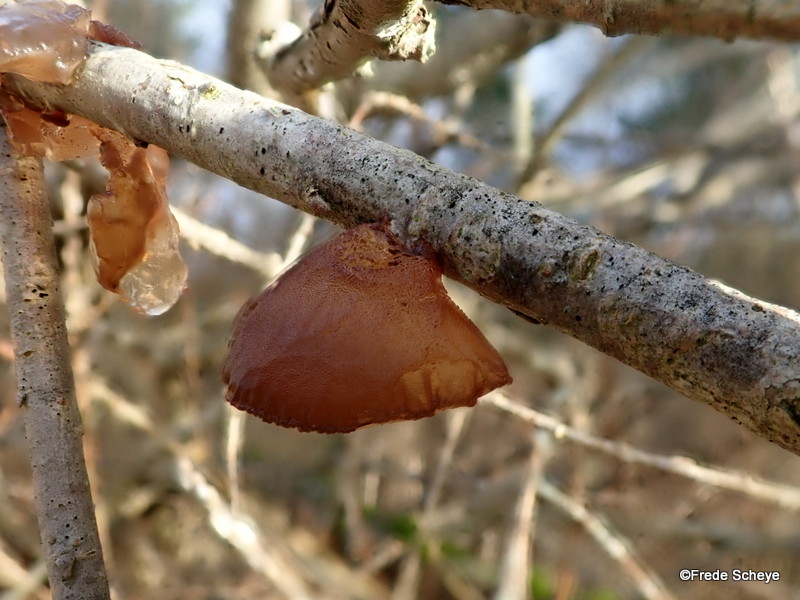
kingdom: Fungi
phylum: Basidiomycota
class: Agaricomycetes
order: Auriculariales
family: Auriculariaceae
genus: Exidia
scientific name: Exidia recisa
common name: pile-bævretop
